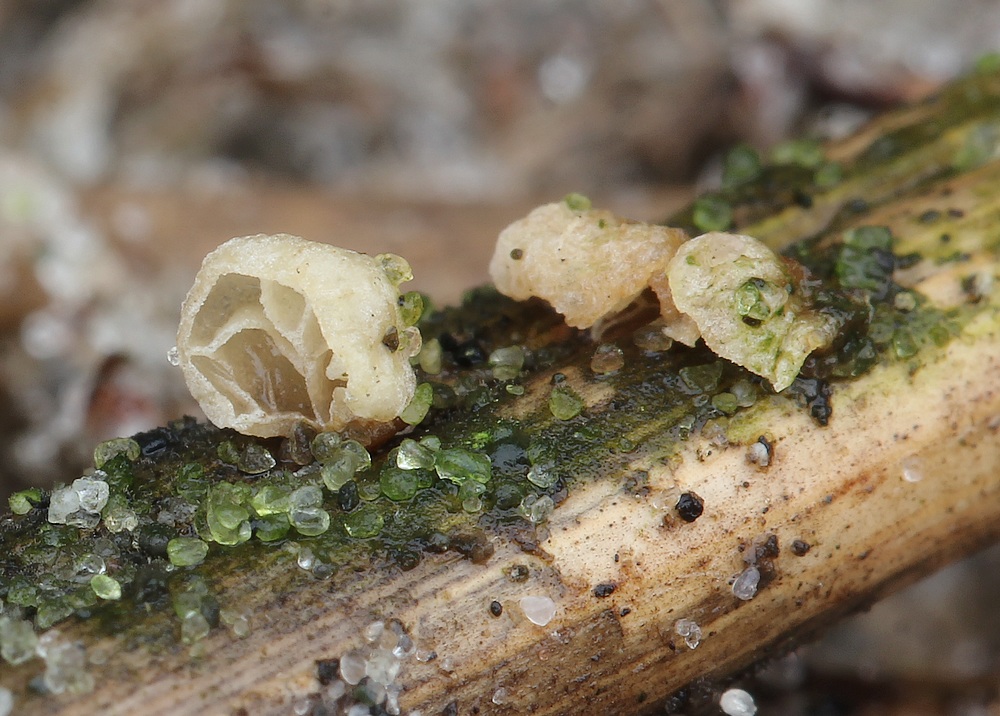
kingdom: Fungi
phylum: Basidiomycota
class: Agaricomycetes
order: Agaricales
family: Marasmiaceae
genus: Campanella
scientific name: Campanella caesia
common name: bruskøre
